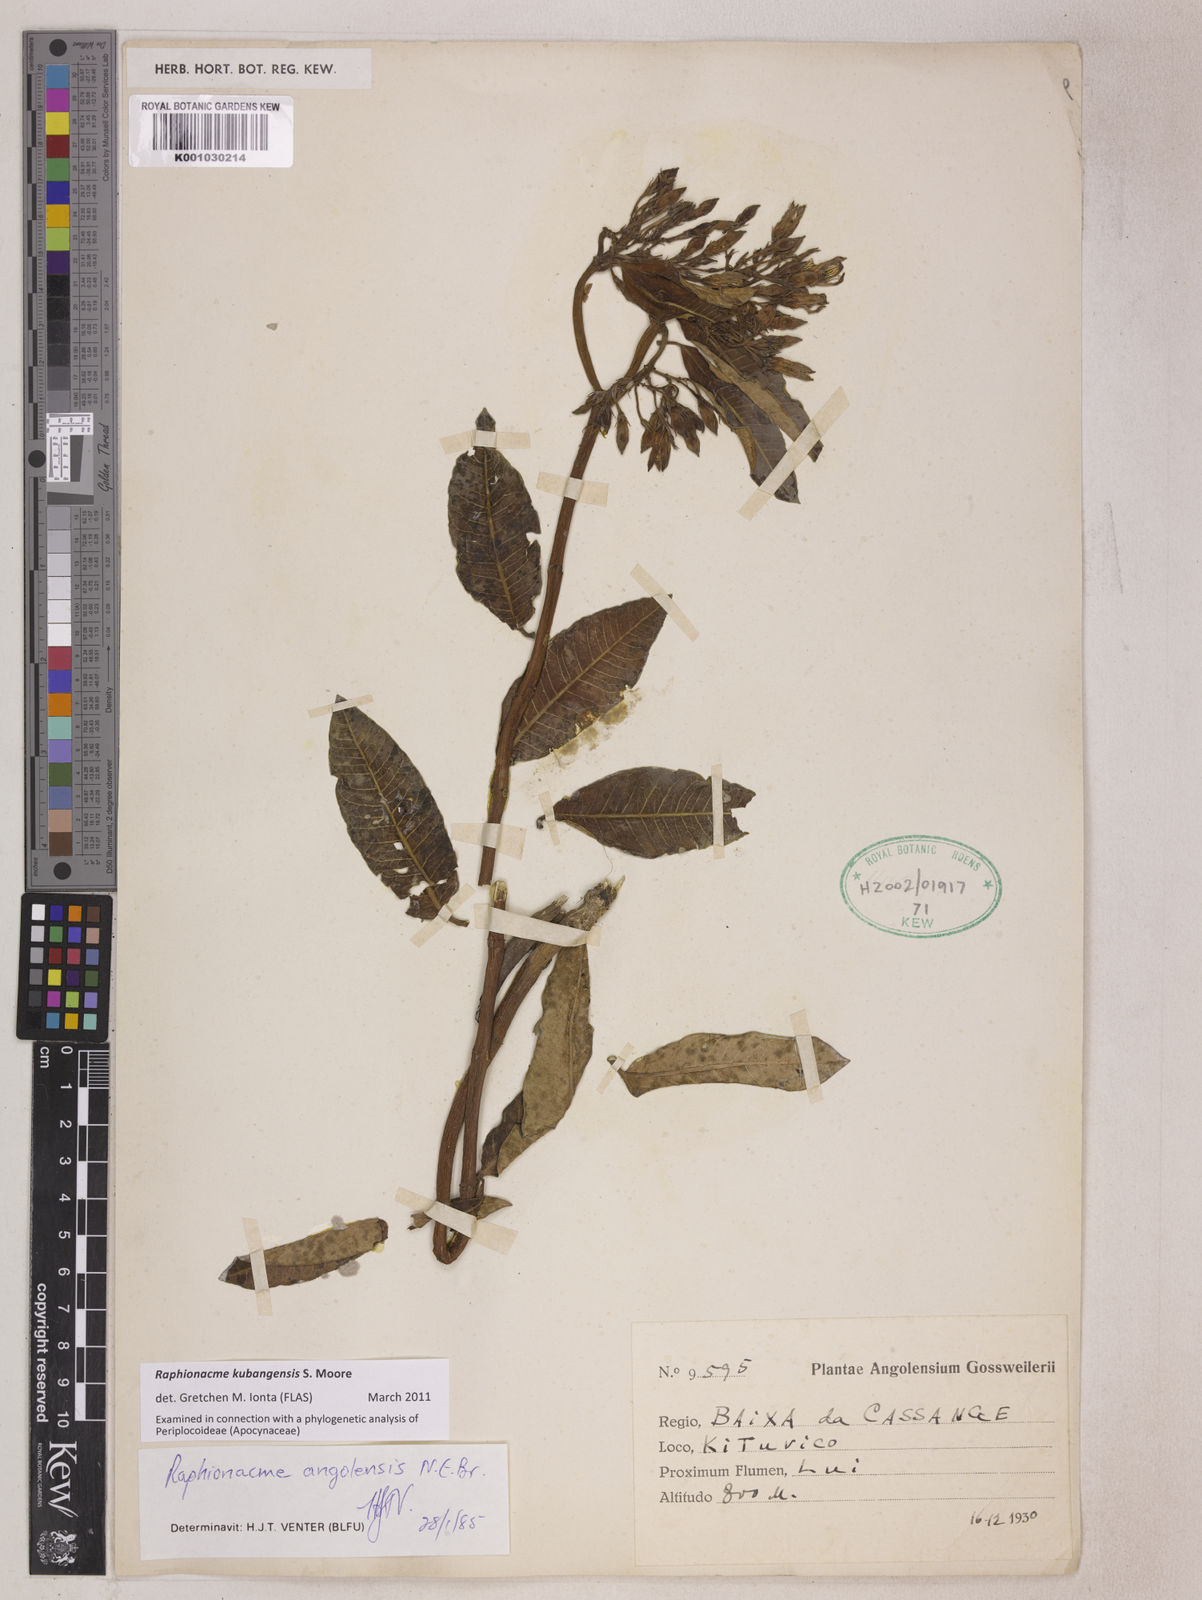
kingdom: Plantae
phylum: Tracheophyta
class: Magnoliopsida
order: Gentianales
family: Apocynaceae
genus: Raphionacme
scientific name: Raphionacme angolensis
